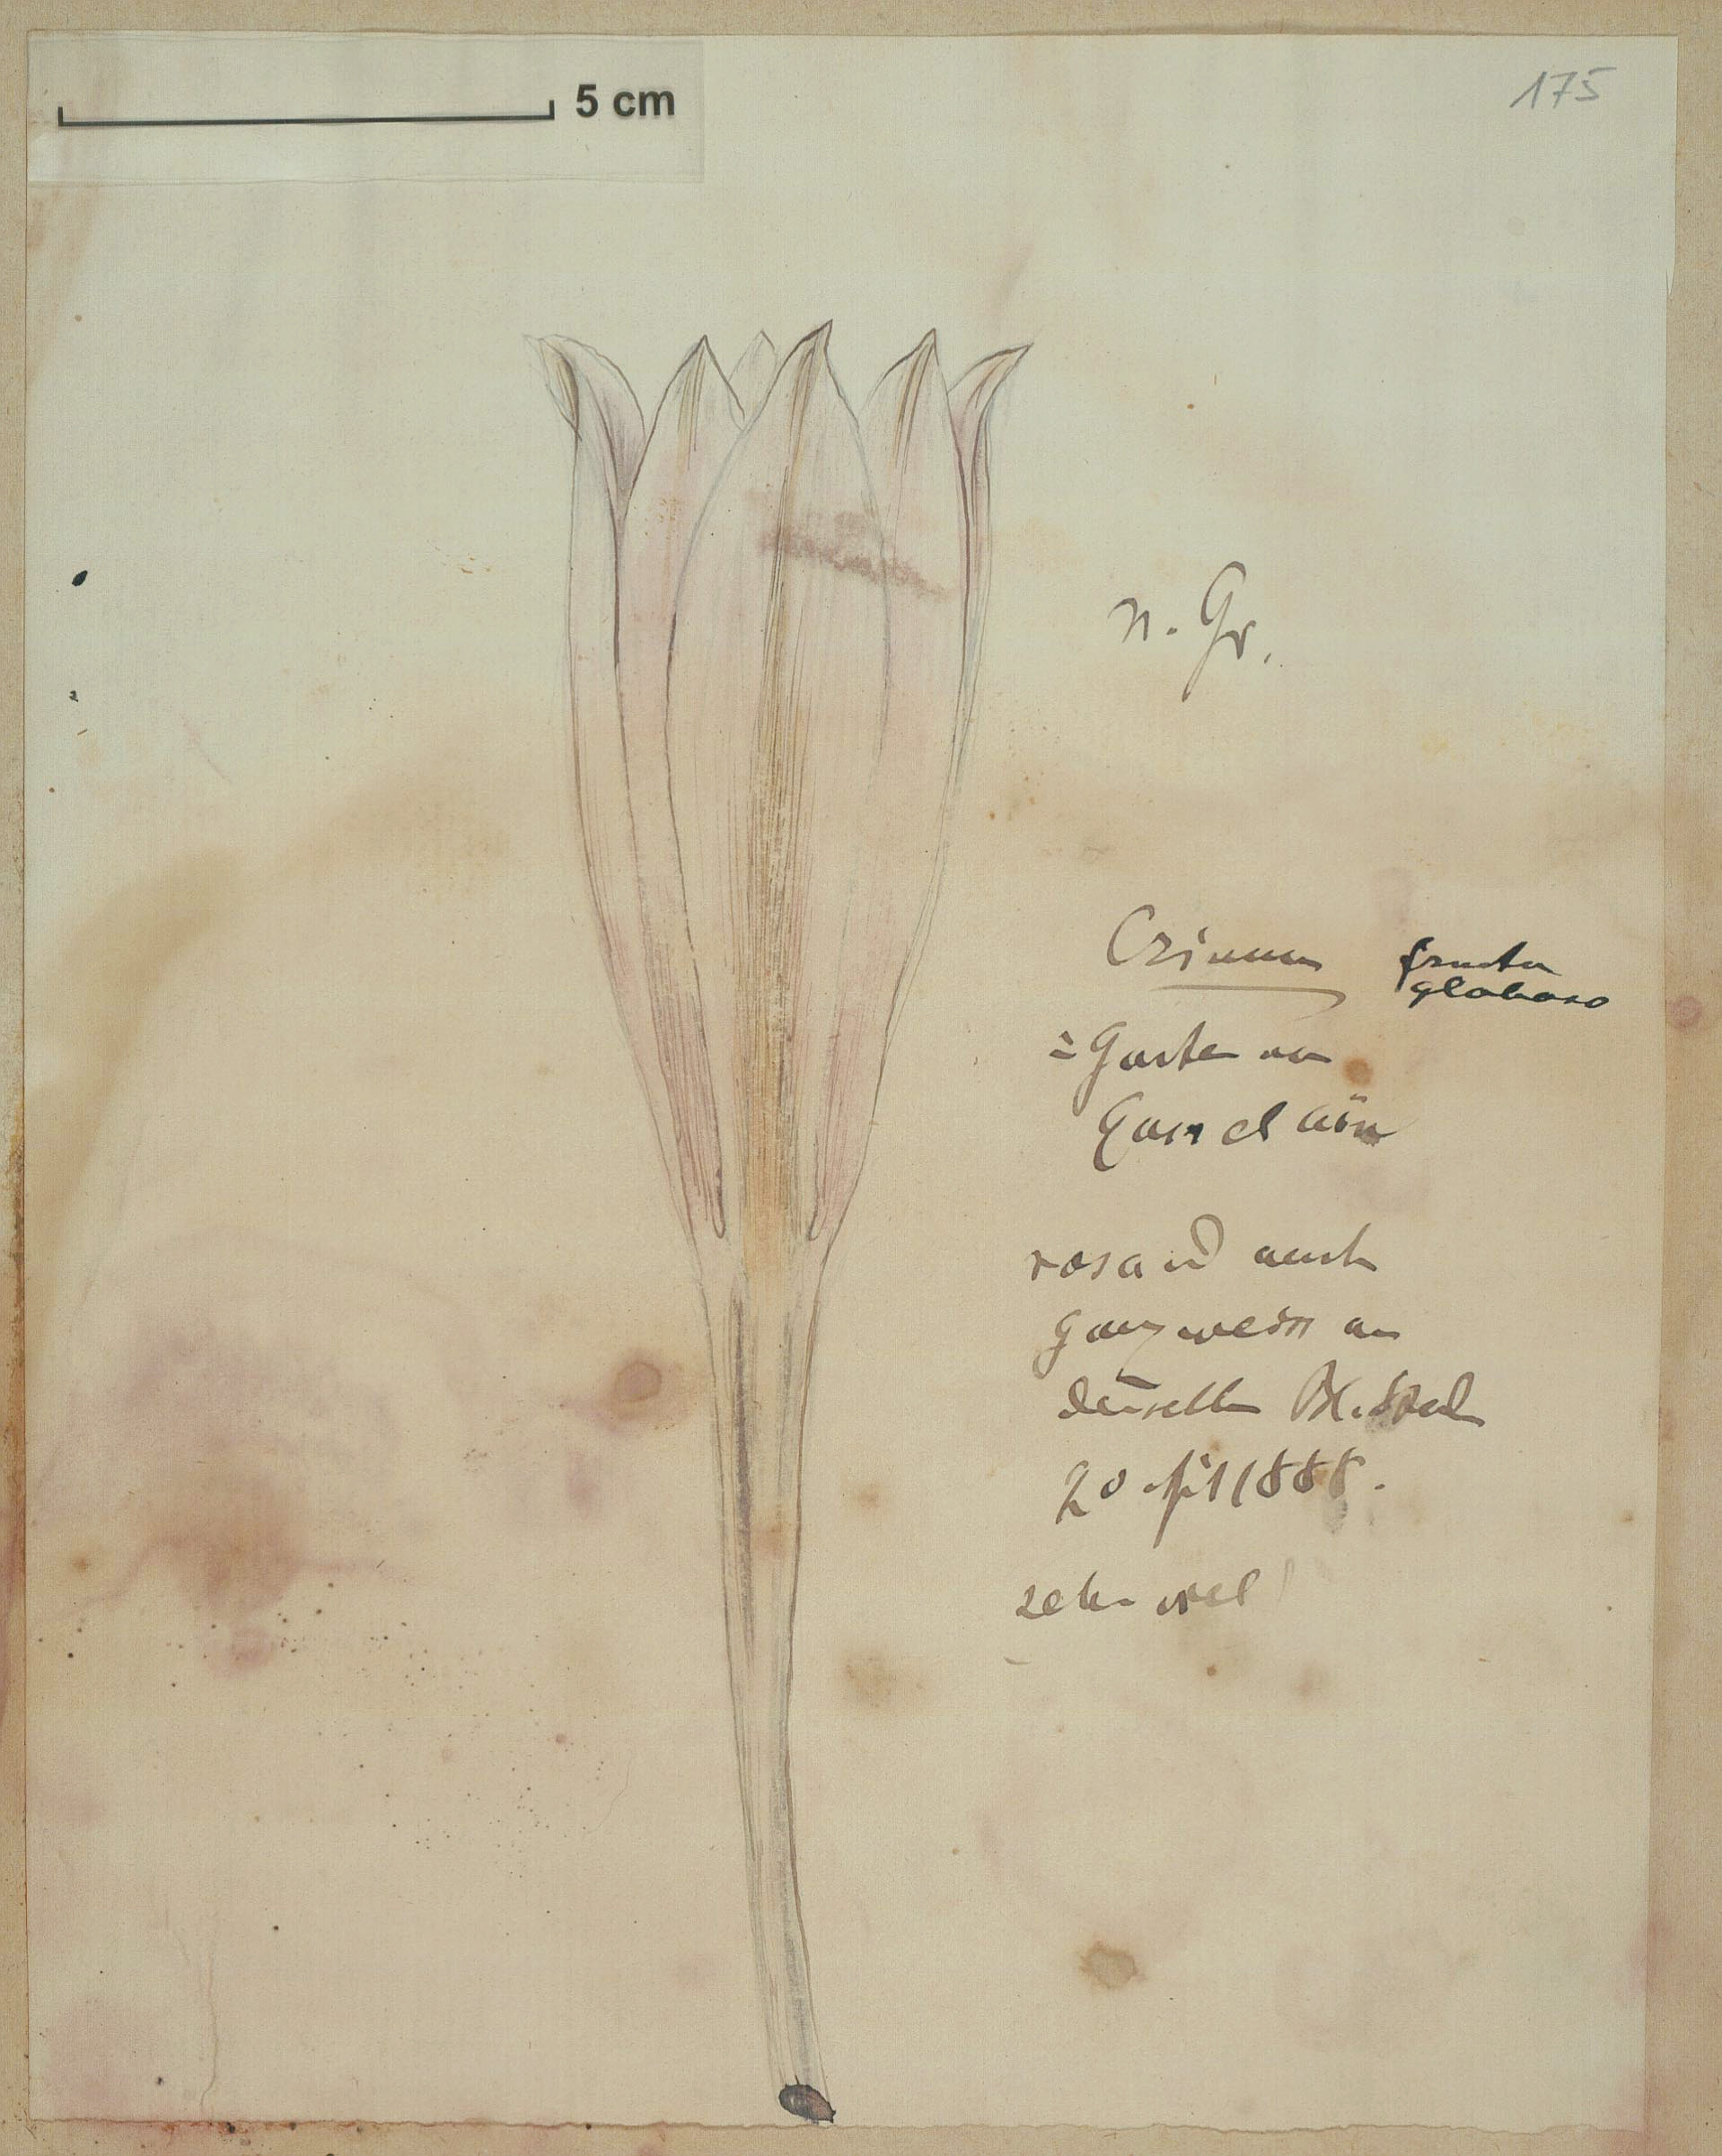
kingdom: Plantae
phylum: Tracheophyta
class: Liliopsida
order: Asparagales
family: Amaryllidaceae
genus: Crinum
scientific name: Crinum
